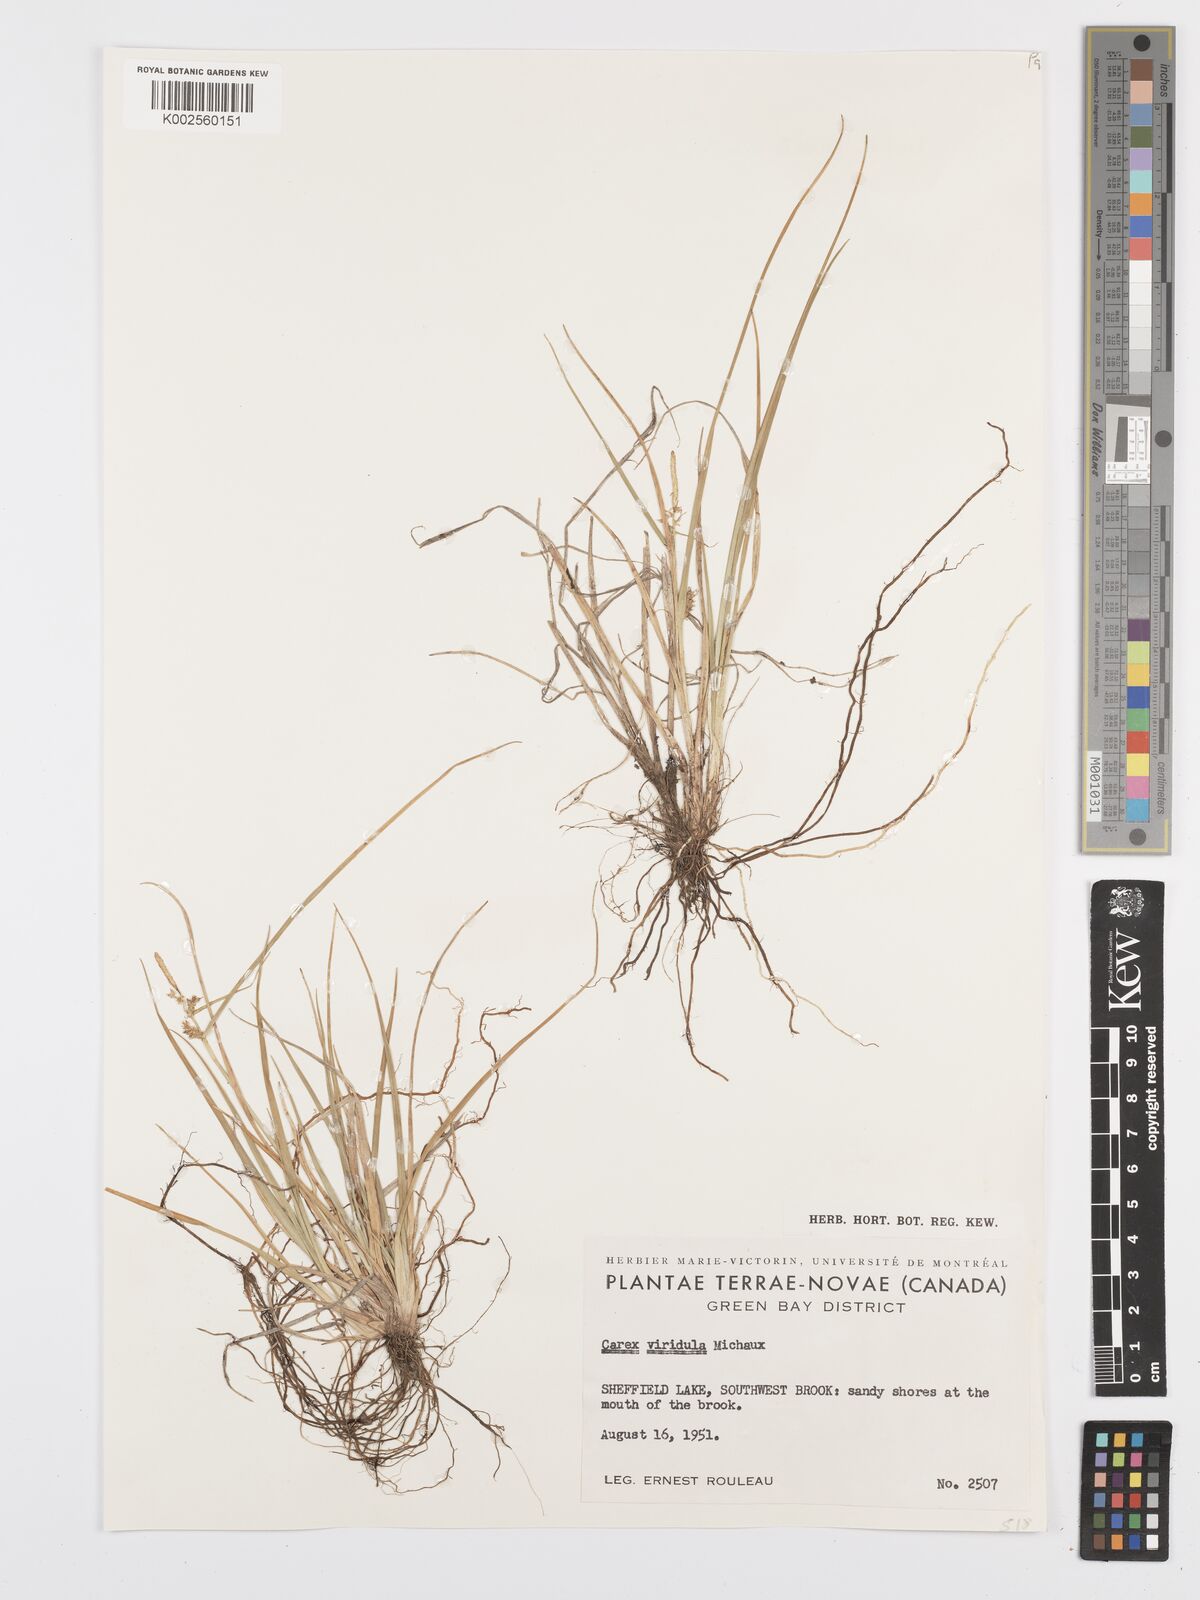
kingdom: Plantae
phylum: Tracheophyta
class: Liliopsida
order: Poales
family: Cyperaceae
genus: Carex
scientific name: Carex oederi
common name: Common & small-fruited yellow-sedge
